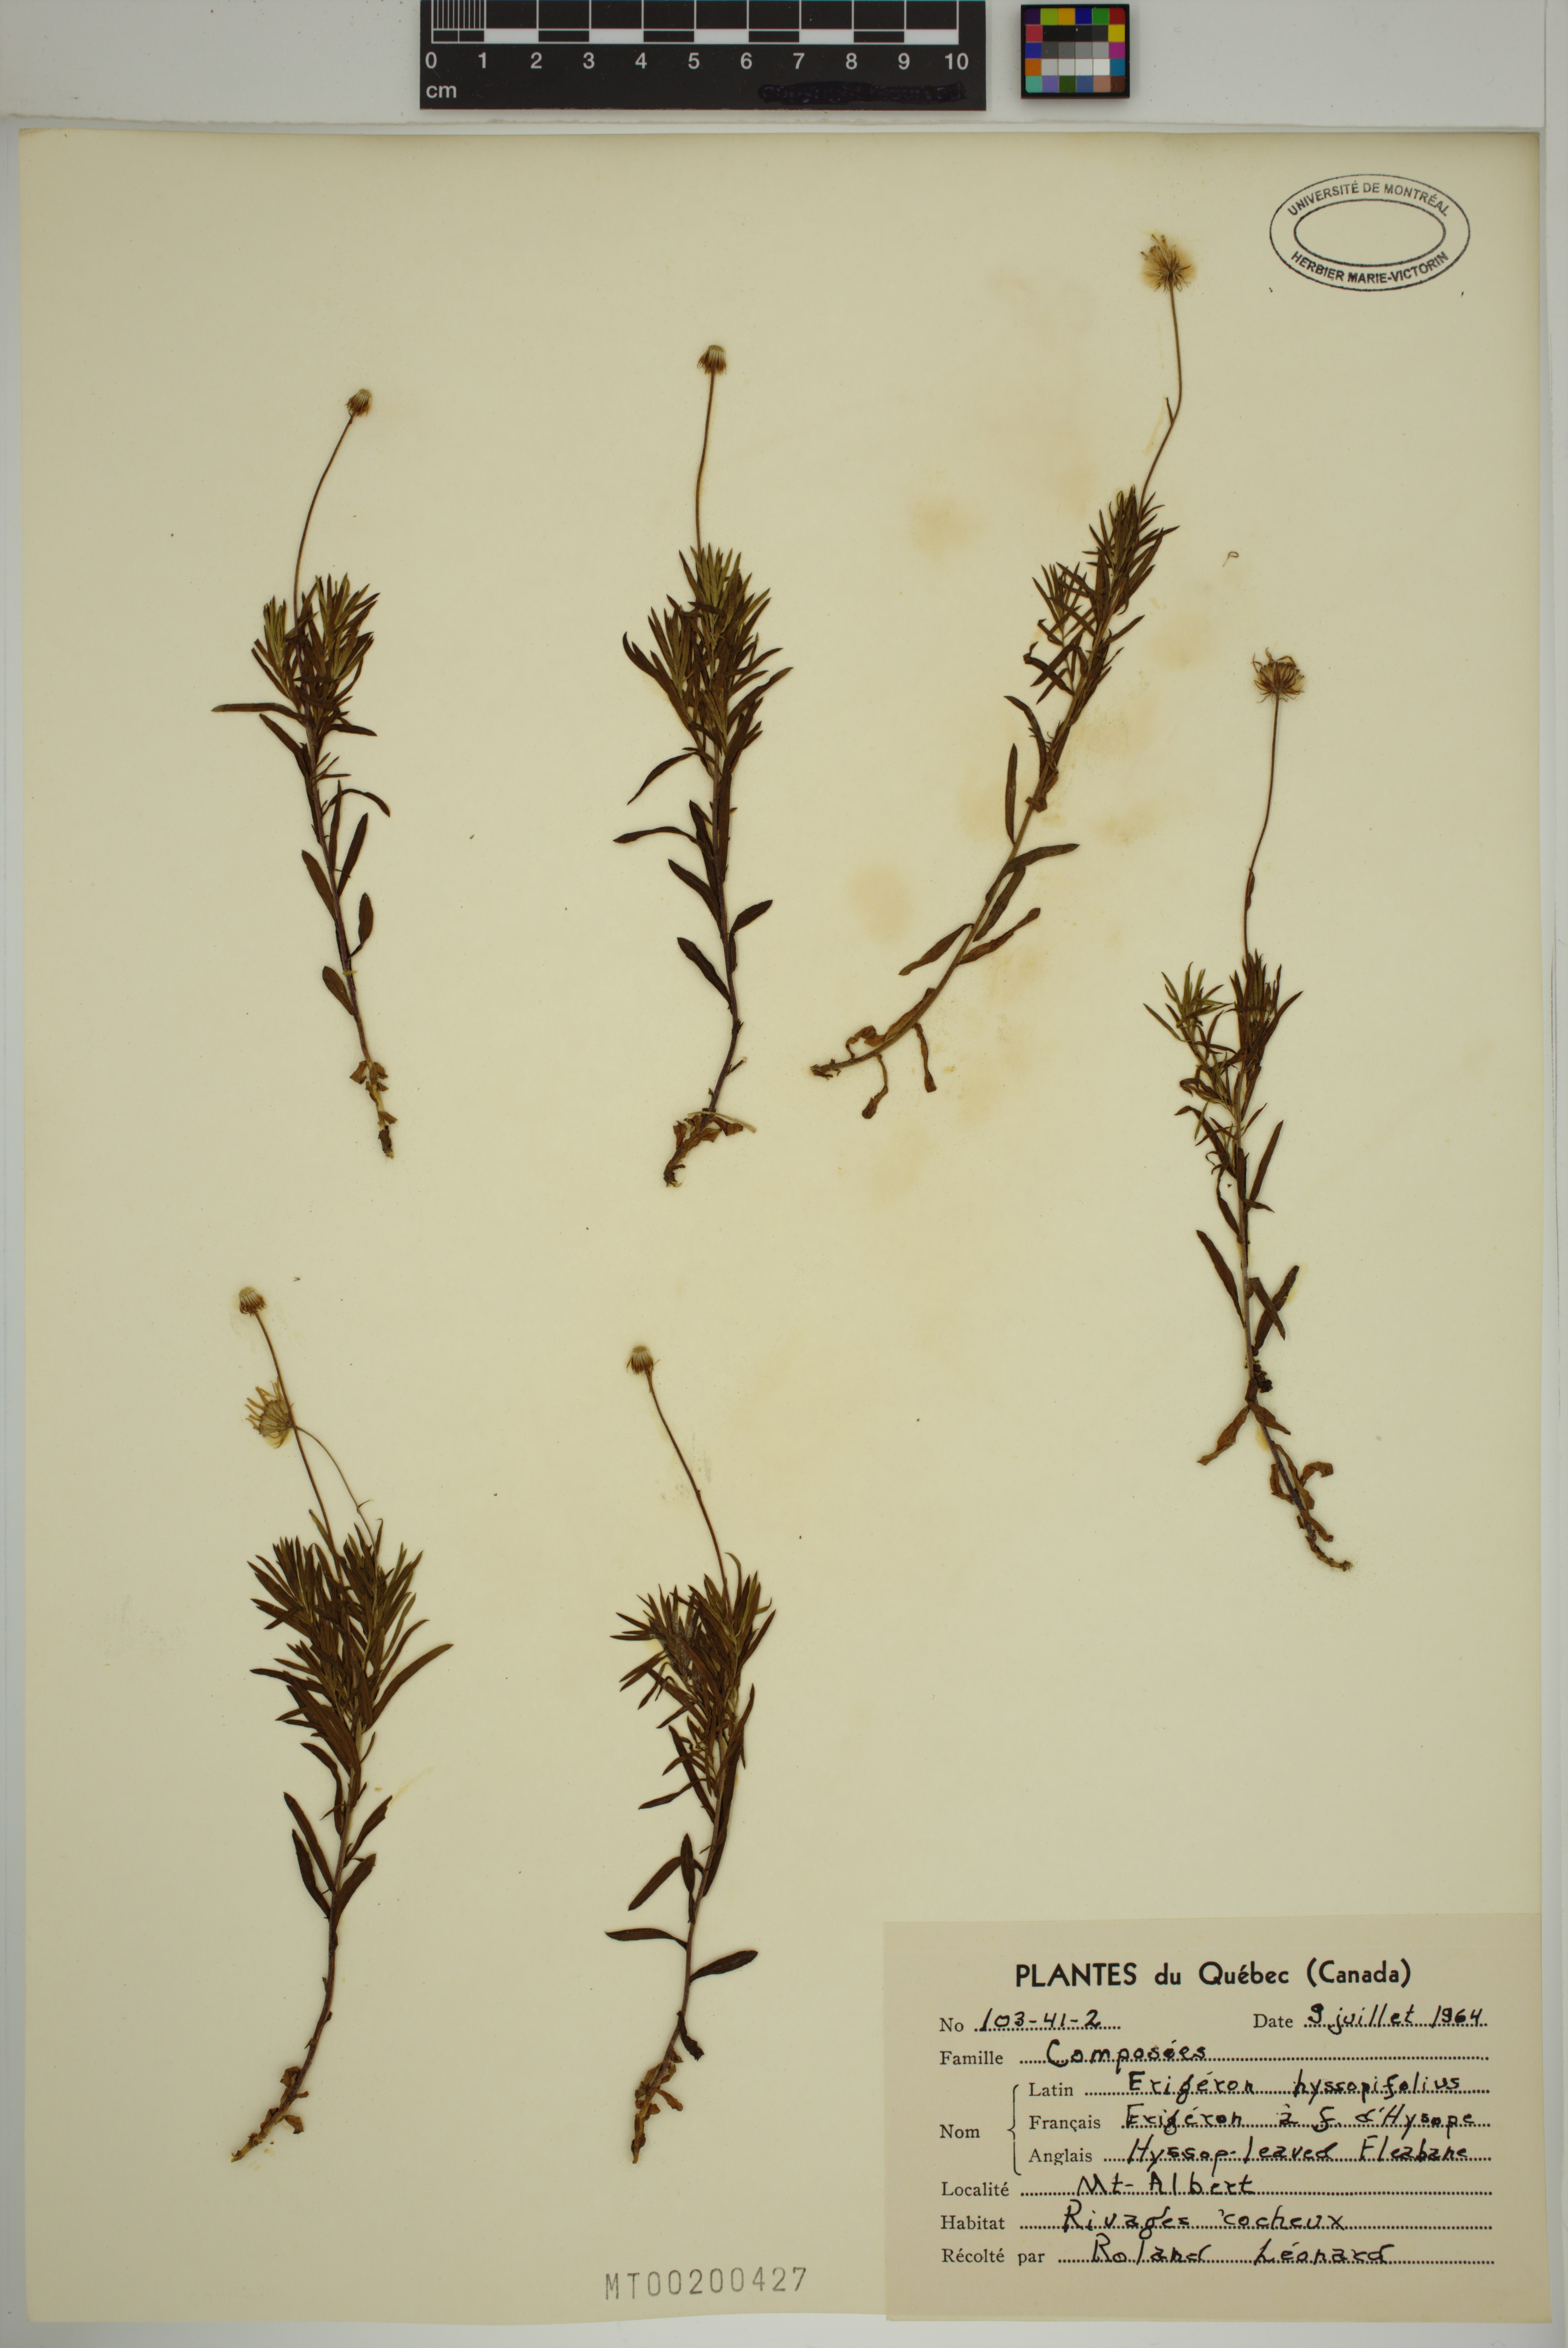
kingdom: Plantae
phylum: Tracheophyta
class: Magnoliopsida
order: Asterales
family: Asteraceae
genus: Erigeron
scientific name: Erigeron hyssopifolius
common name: Daisy fleabane
